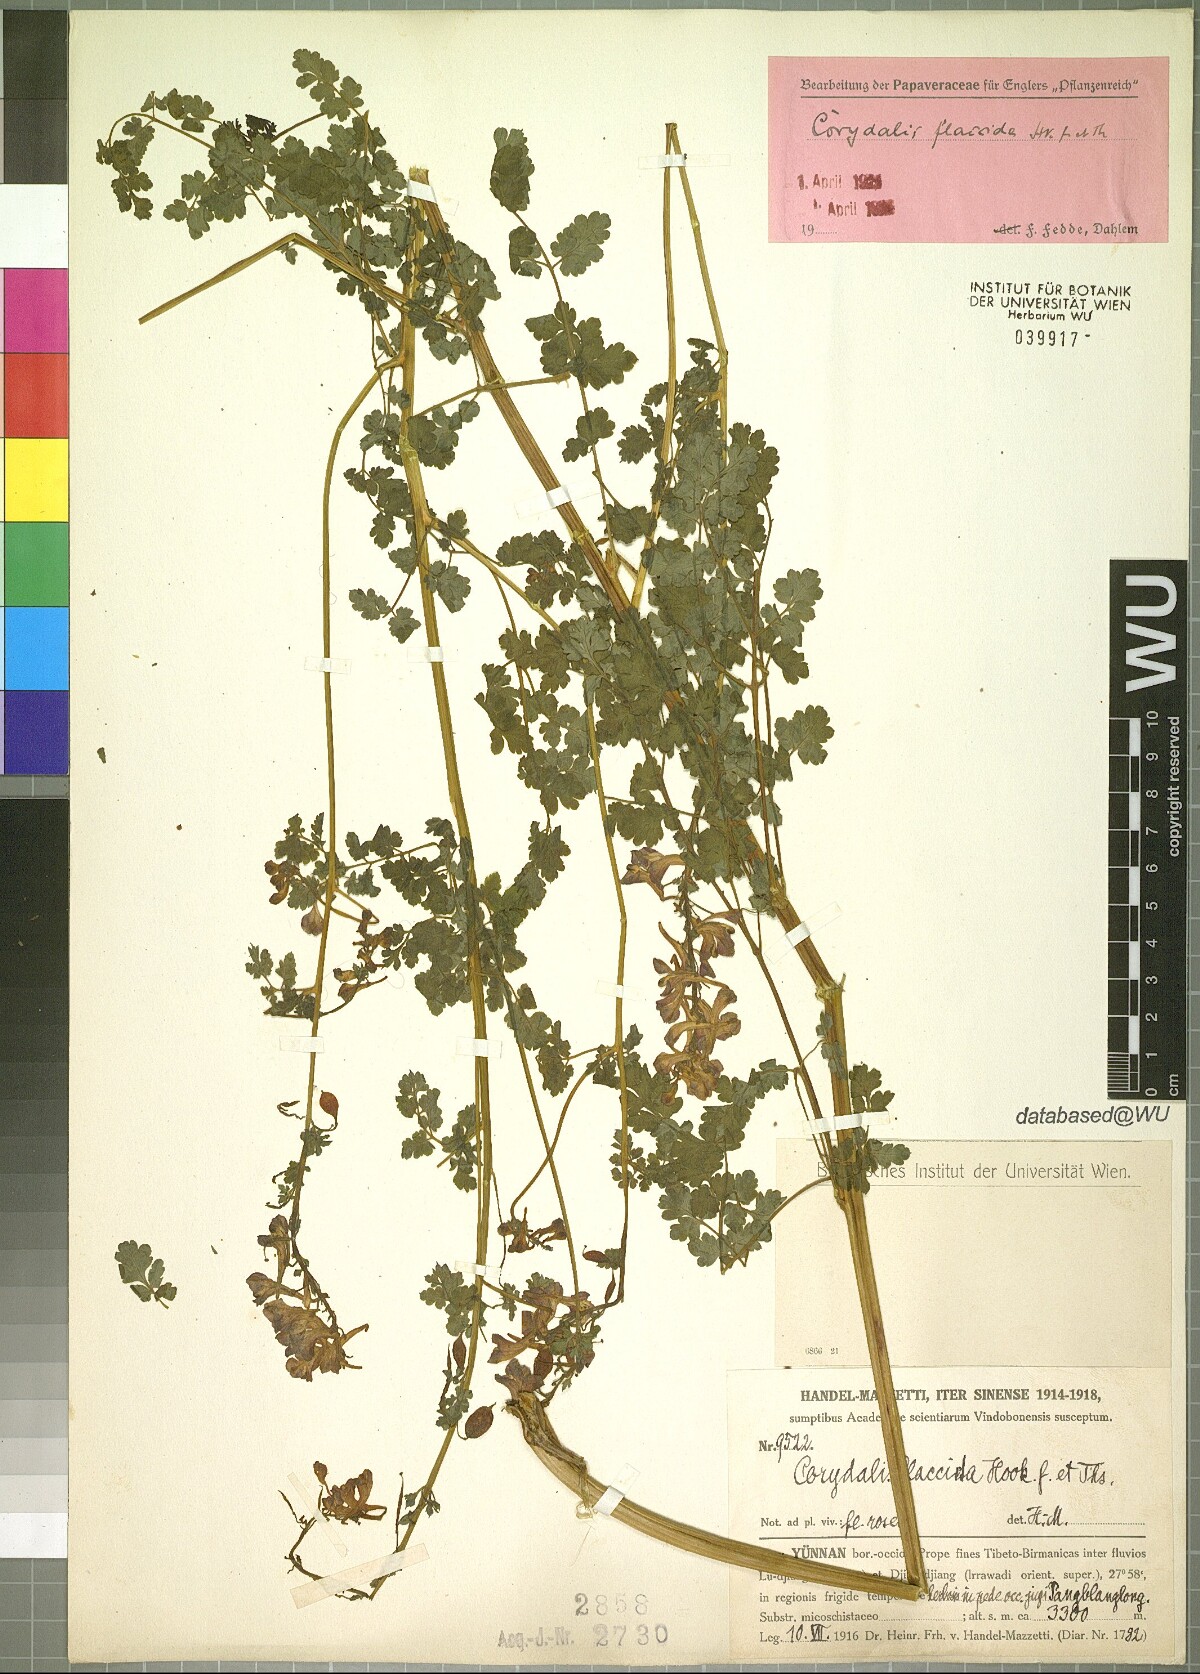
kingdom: Plantae
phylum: Tracheophyta
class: Magnoliopsida
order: Ranunculales
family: Papaveraceae
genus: Corydalis
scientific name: Corydalis flaccida
